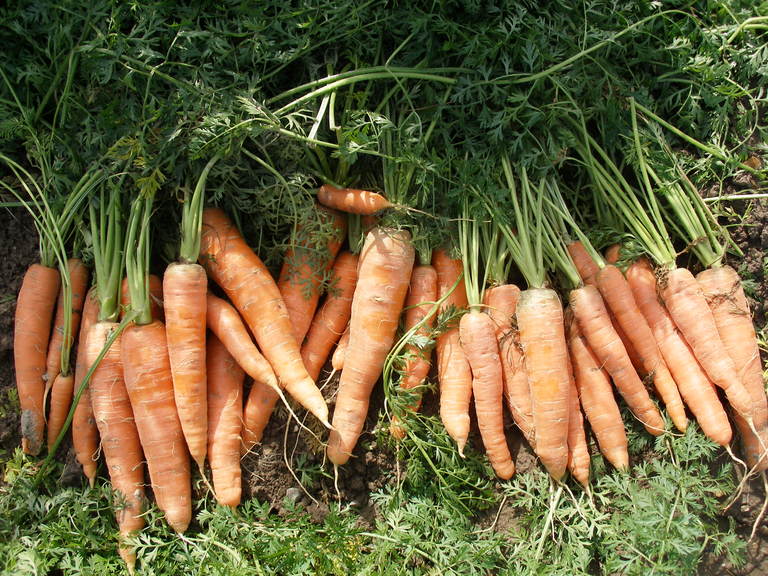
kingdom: Plantae
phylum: Tracheophyta
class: Magnoliopsida
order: Apiales
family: Apiaceae
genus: Daucus
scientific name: Daucus carota
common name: Wild carrot
